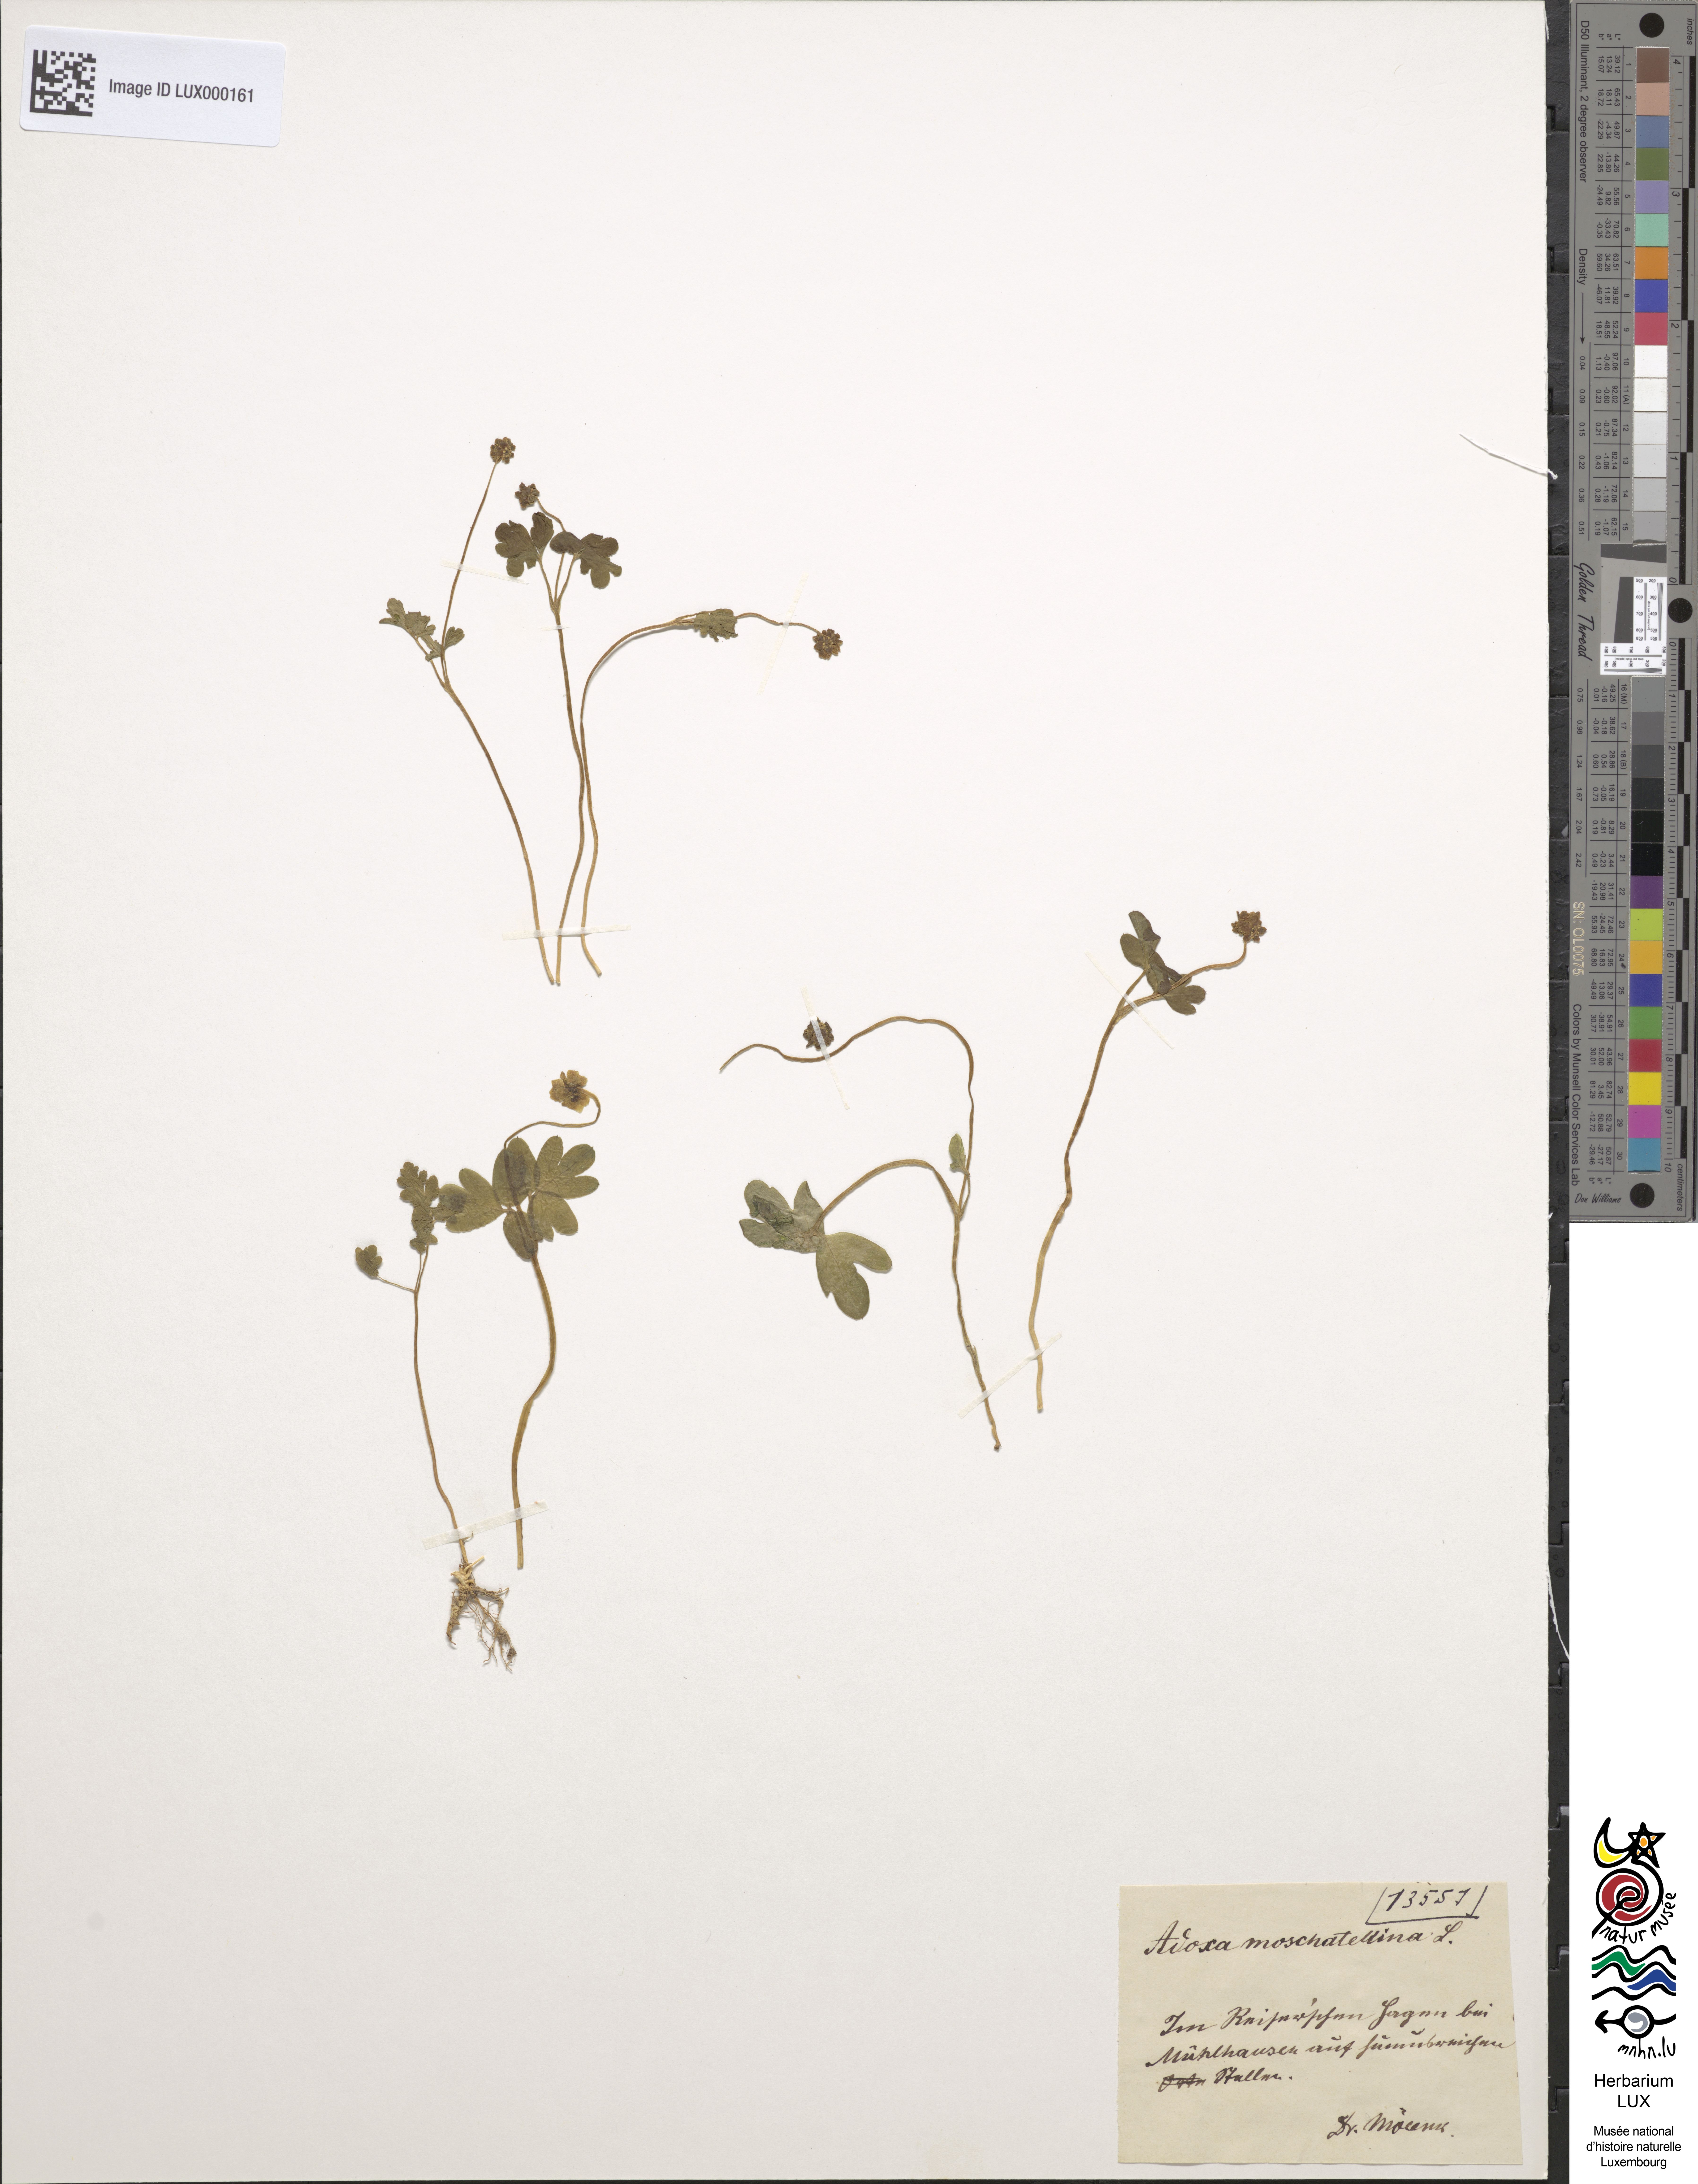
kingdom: Plantae
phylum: Tracheophyta
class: Magnoliopsida
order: Dipsacales
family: Viburnaceae
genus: Adoxa
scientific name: Adoxa moschatellina
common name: Moschatel
